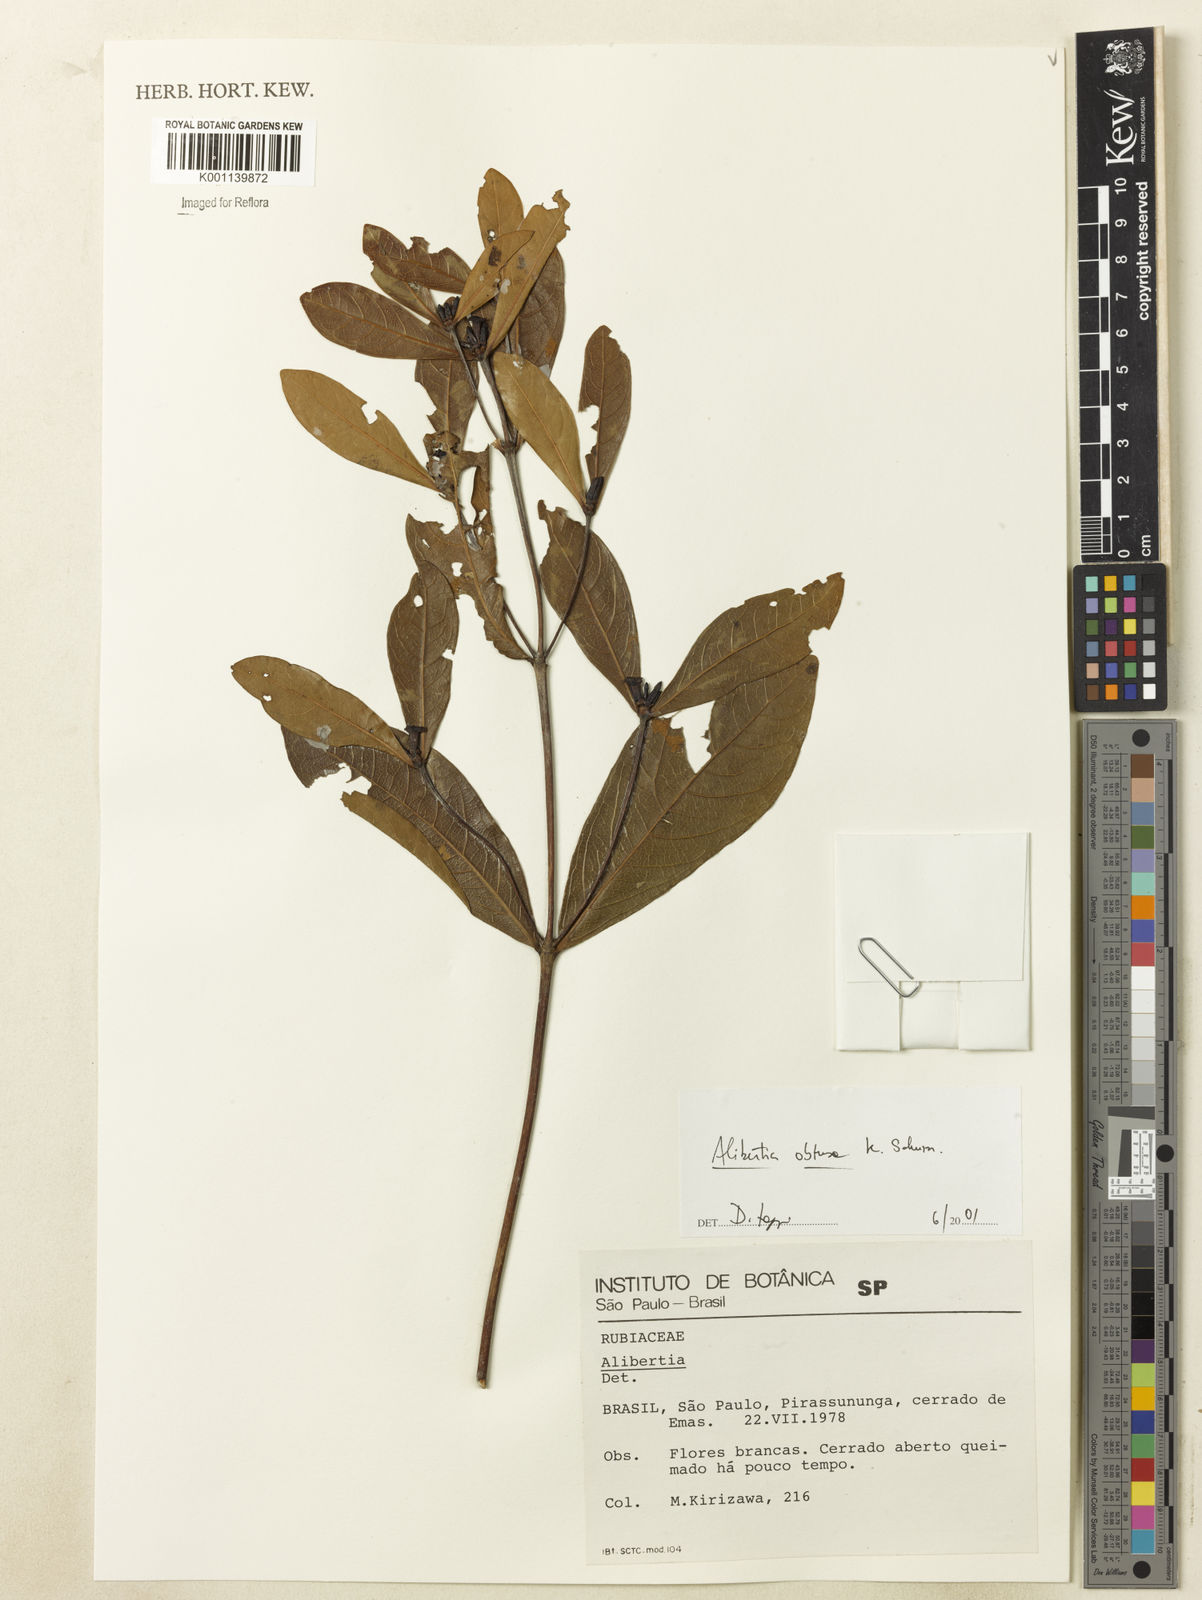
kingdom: Plantae
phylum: Tracheophyta
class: Magnoliopsida
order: Gentianales
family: Rubiaceae
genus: Cordiera
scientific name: Cordiera obtusa
